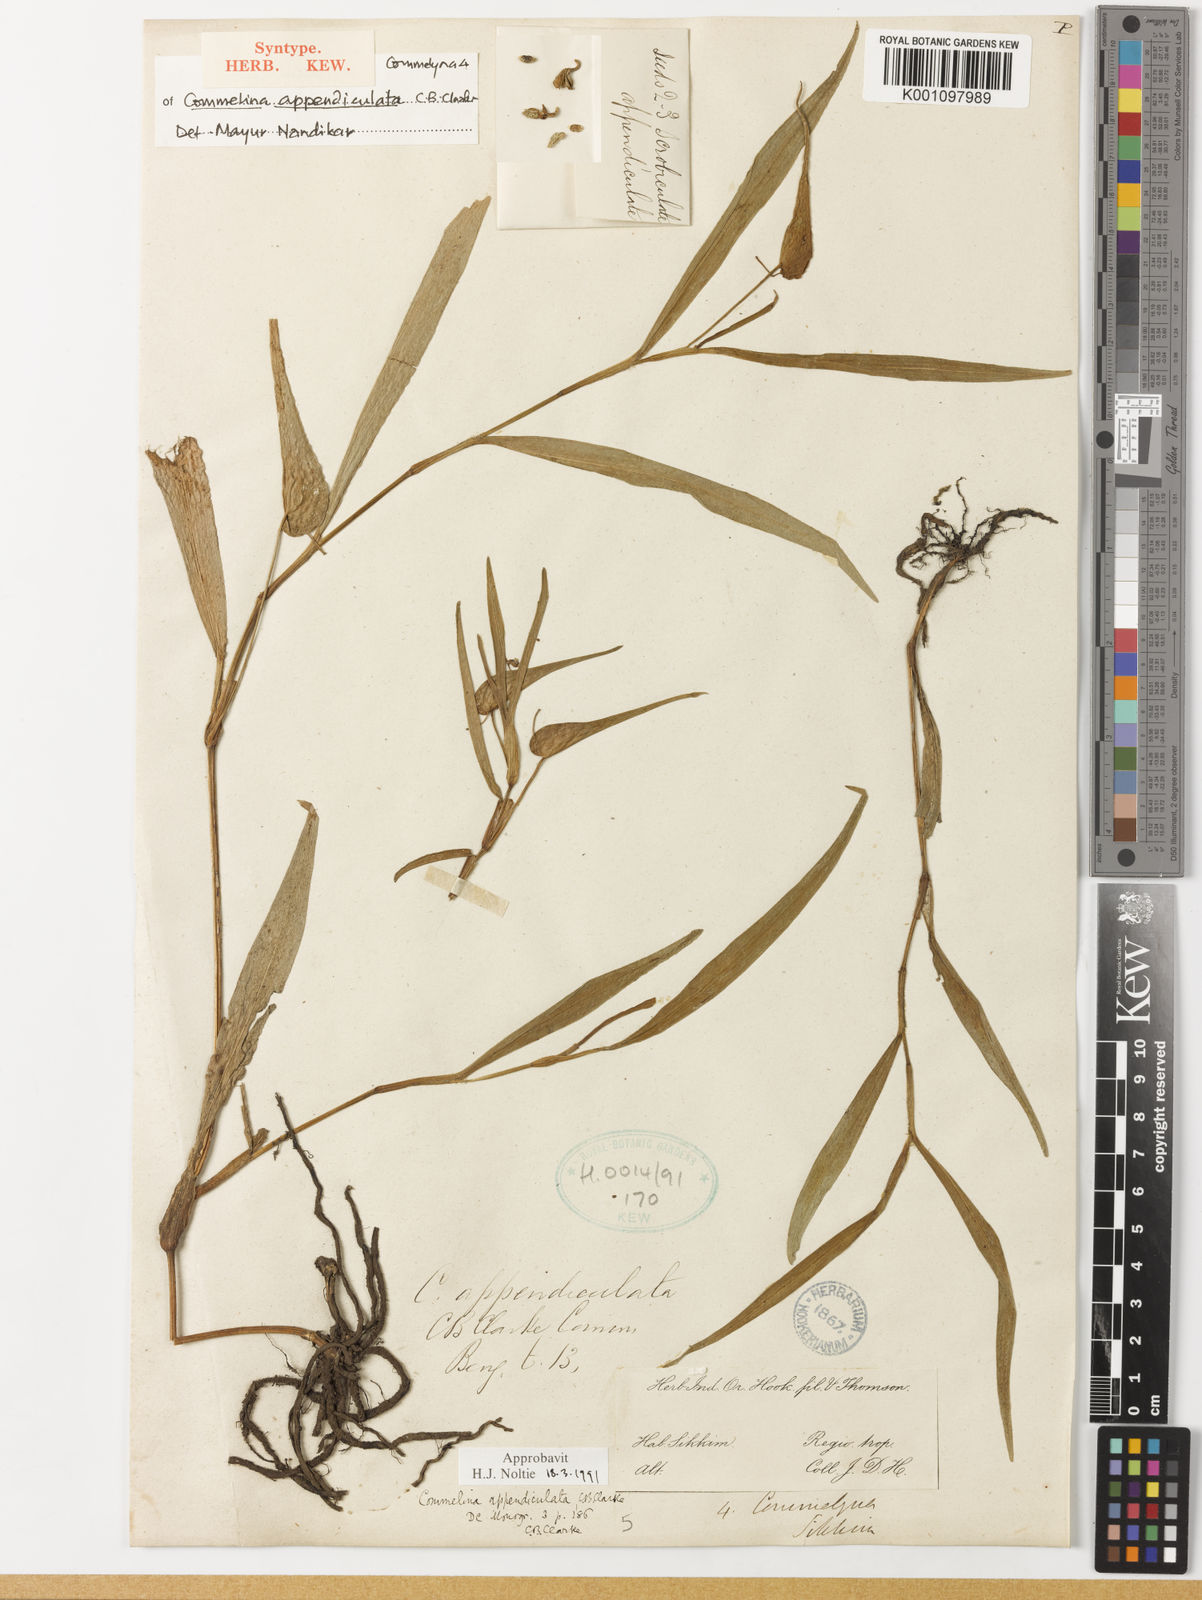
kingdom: Plantae
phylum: Tracheophyta
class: Liliopsida
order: Commelinales
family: Commelinaceae
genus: Commelina
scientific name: Commelina appendiculata
